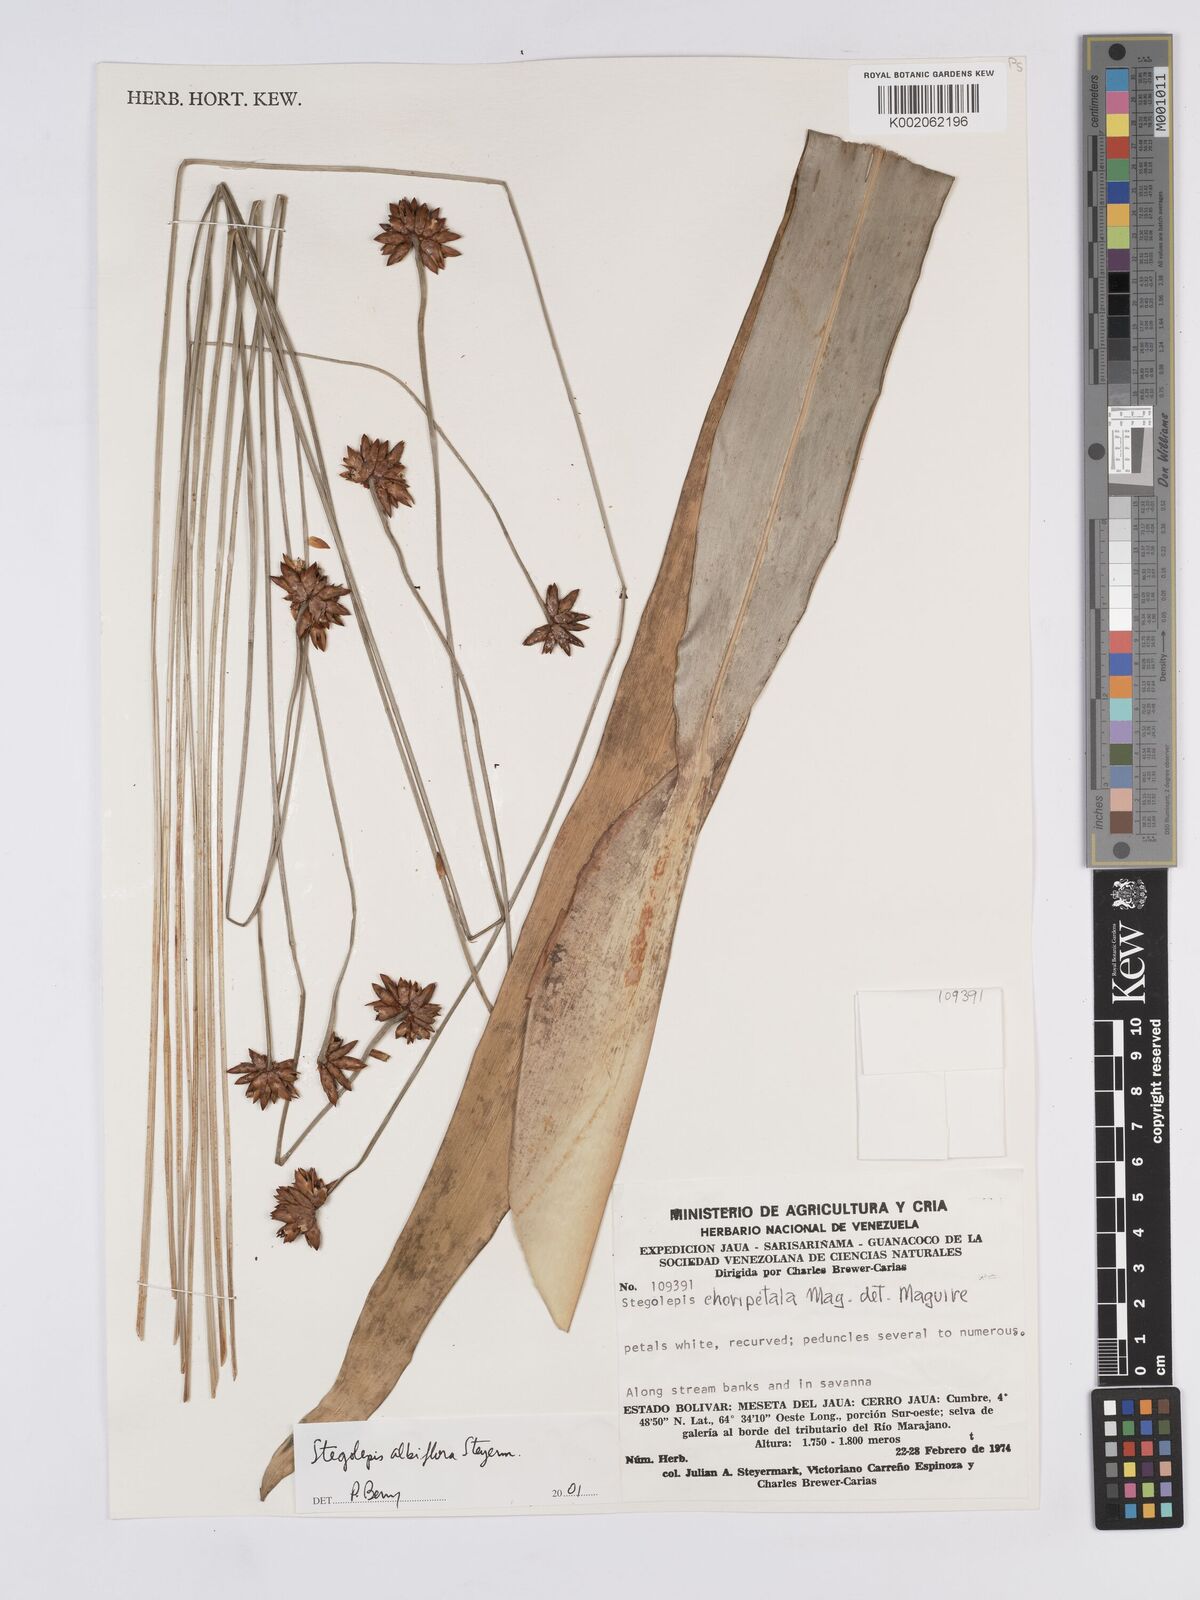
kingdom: Plantae
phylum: Tracheophyta
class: Liliopsida
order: Poales
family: Rapateaceae
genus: Stegolepis
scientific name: Stegolepis albiflora
